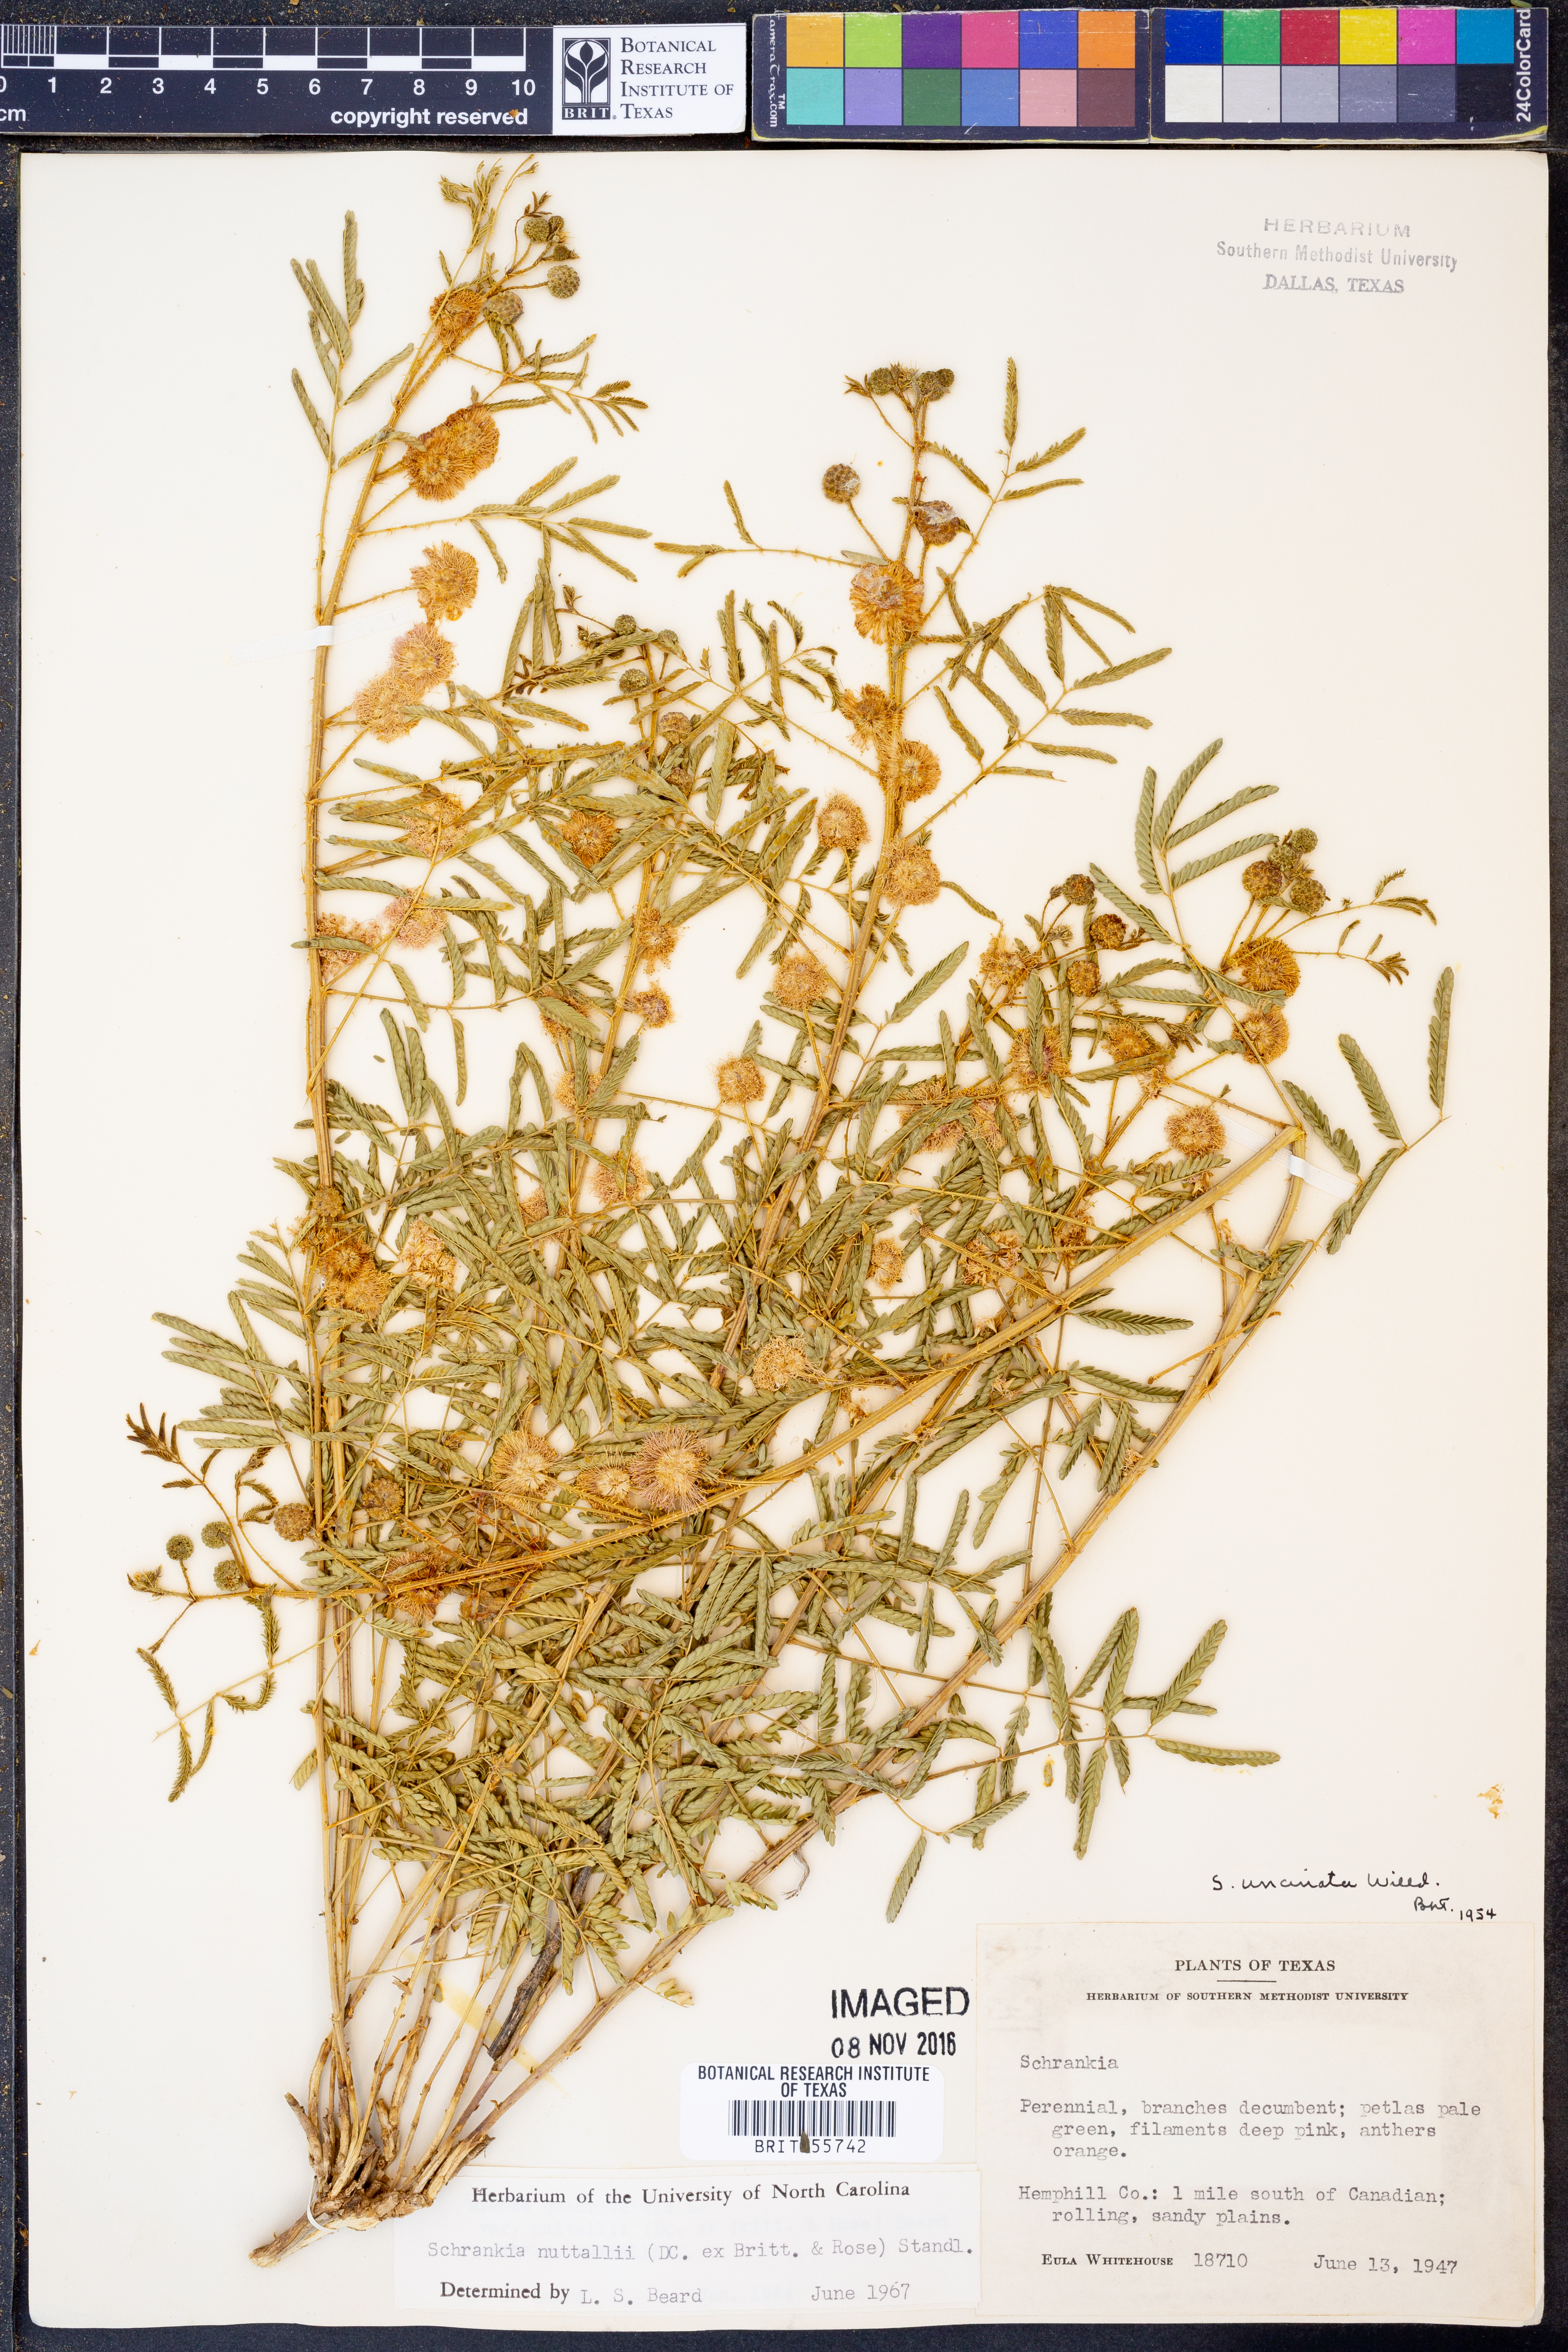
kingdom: Plantae
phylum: Tracheophyta
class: Magnoliopsida
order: Fabales
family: Fabaceae
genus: Mimosa
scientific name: Mimosa quadrivalvis
